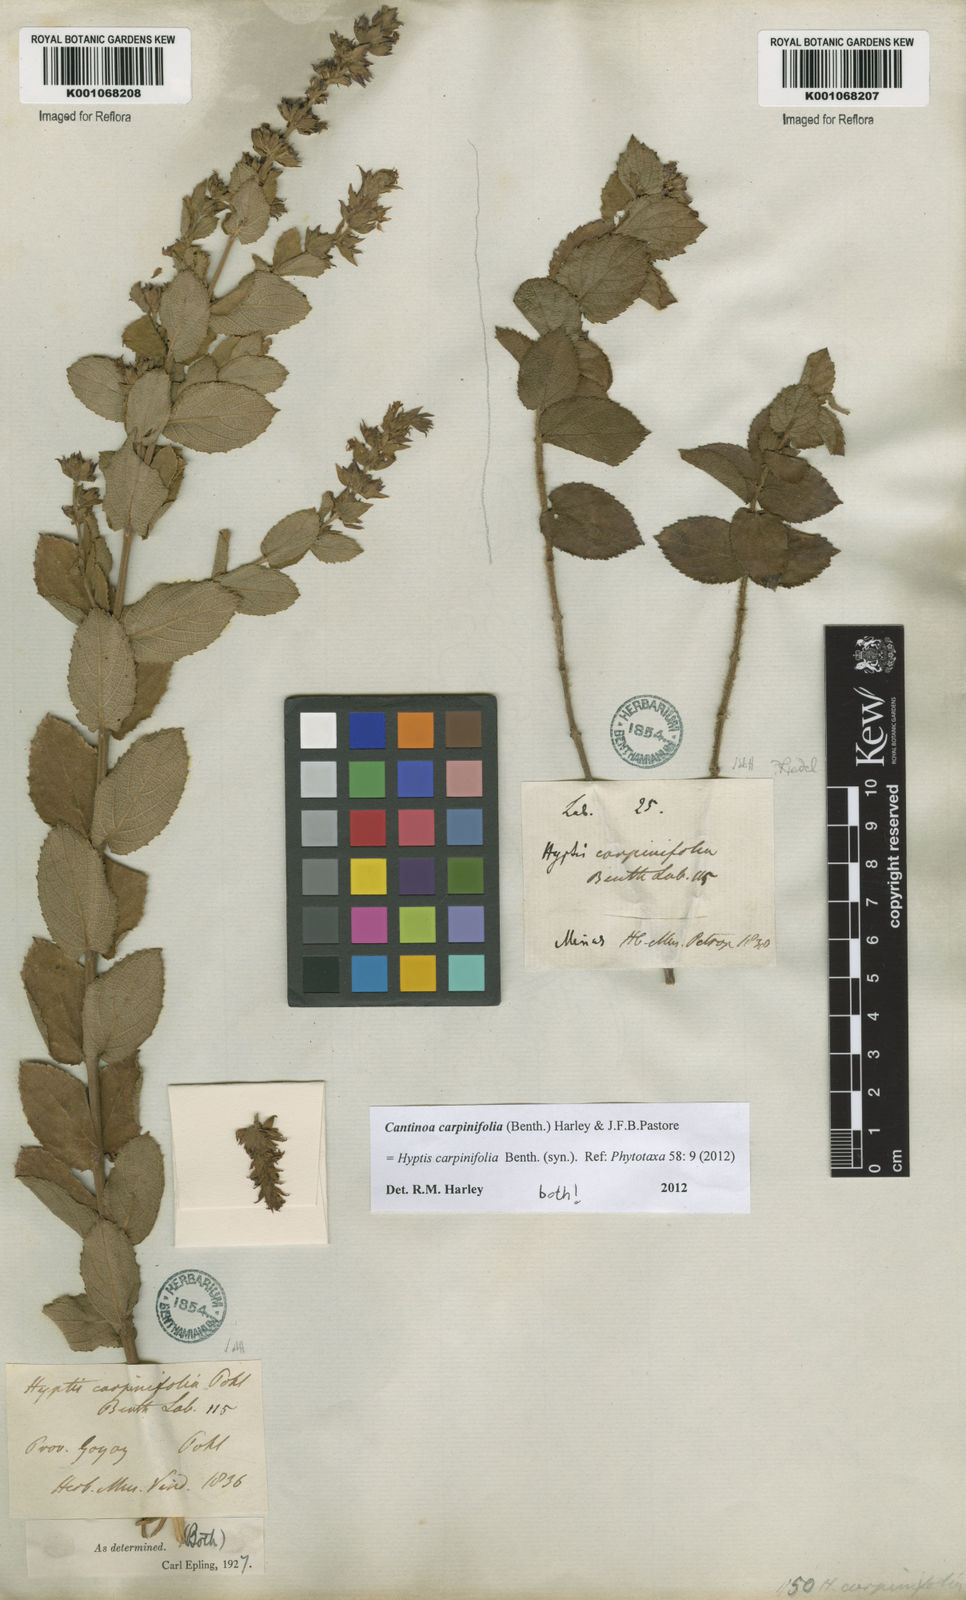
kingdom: Plantae
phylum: Tracheophyta
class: Magnoliopsida
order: Lamiales
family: Lamiaceae
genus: Cantinoa
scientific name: Cantinoa carpinifolia
